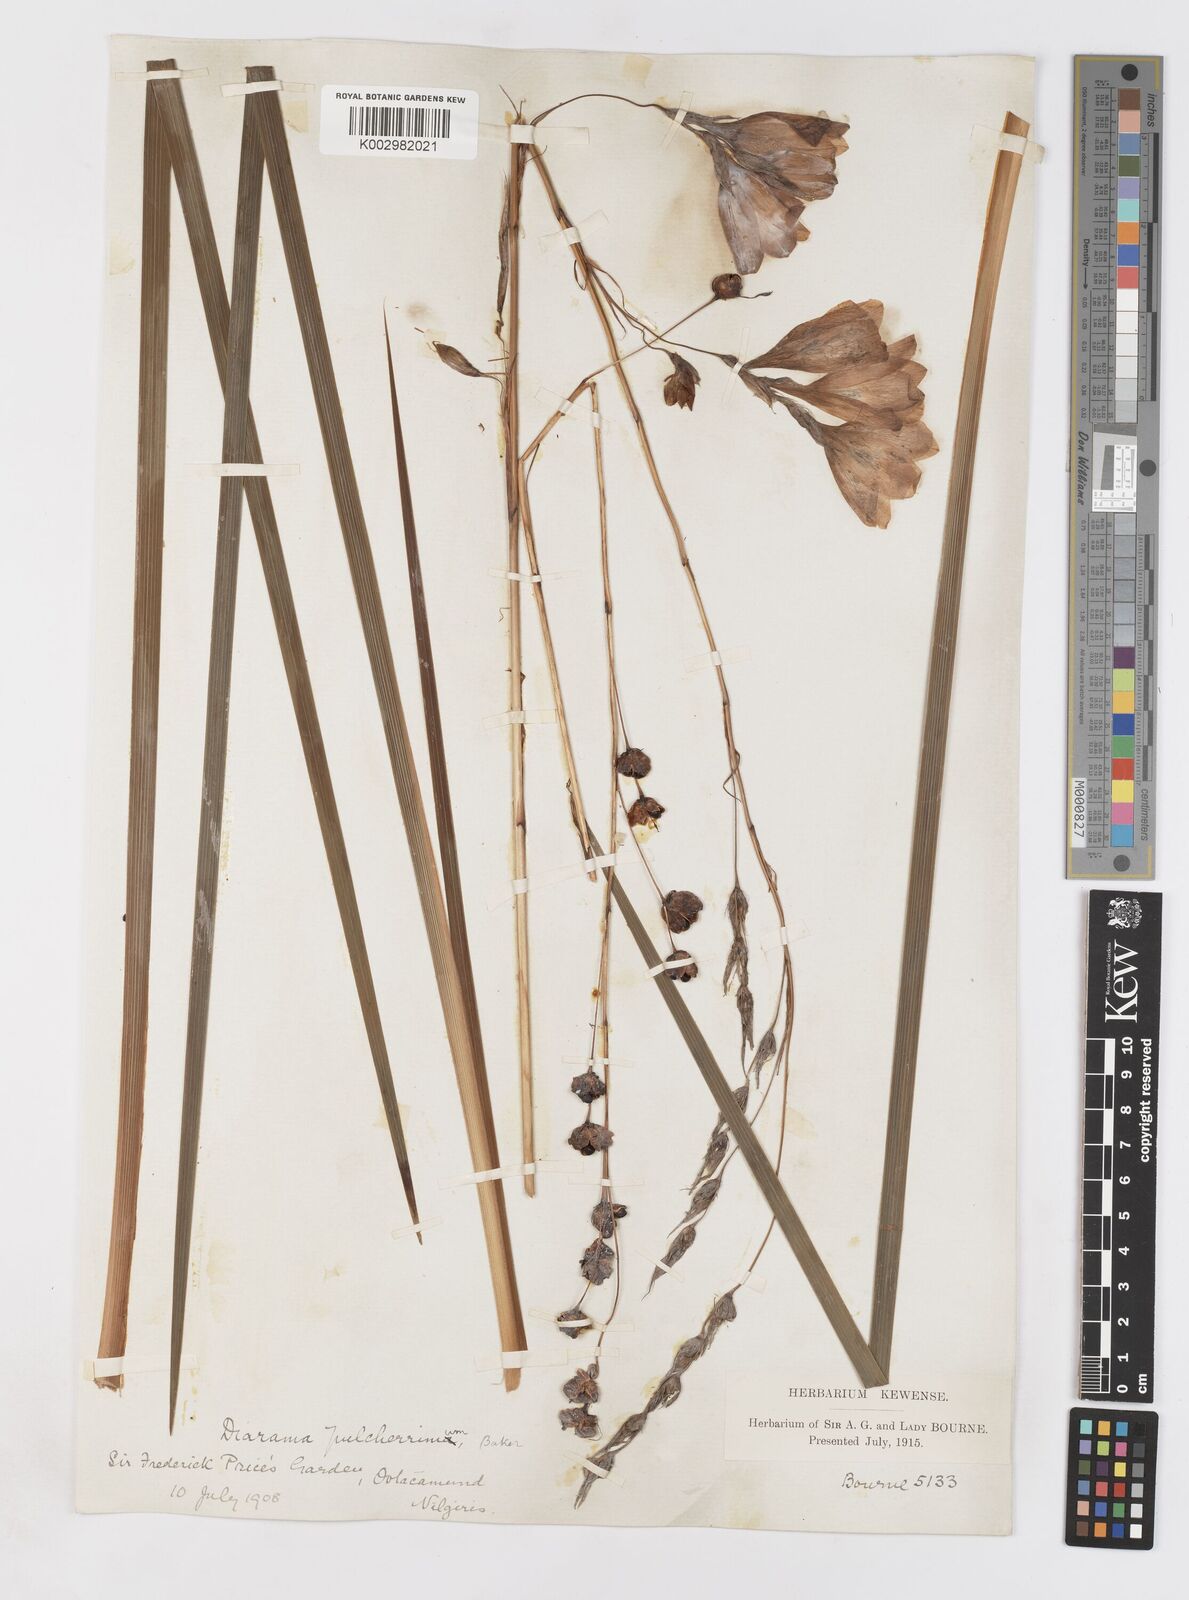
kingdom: Plantae
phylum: Tracheophyta
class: Liliopsida
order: Asparagales
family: Iridaceae
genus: Dierama
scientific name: Dierama pulcherrimum
